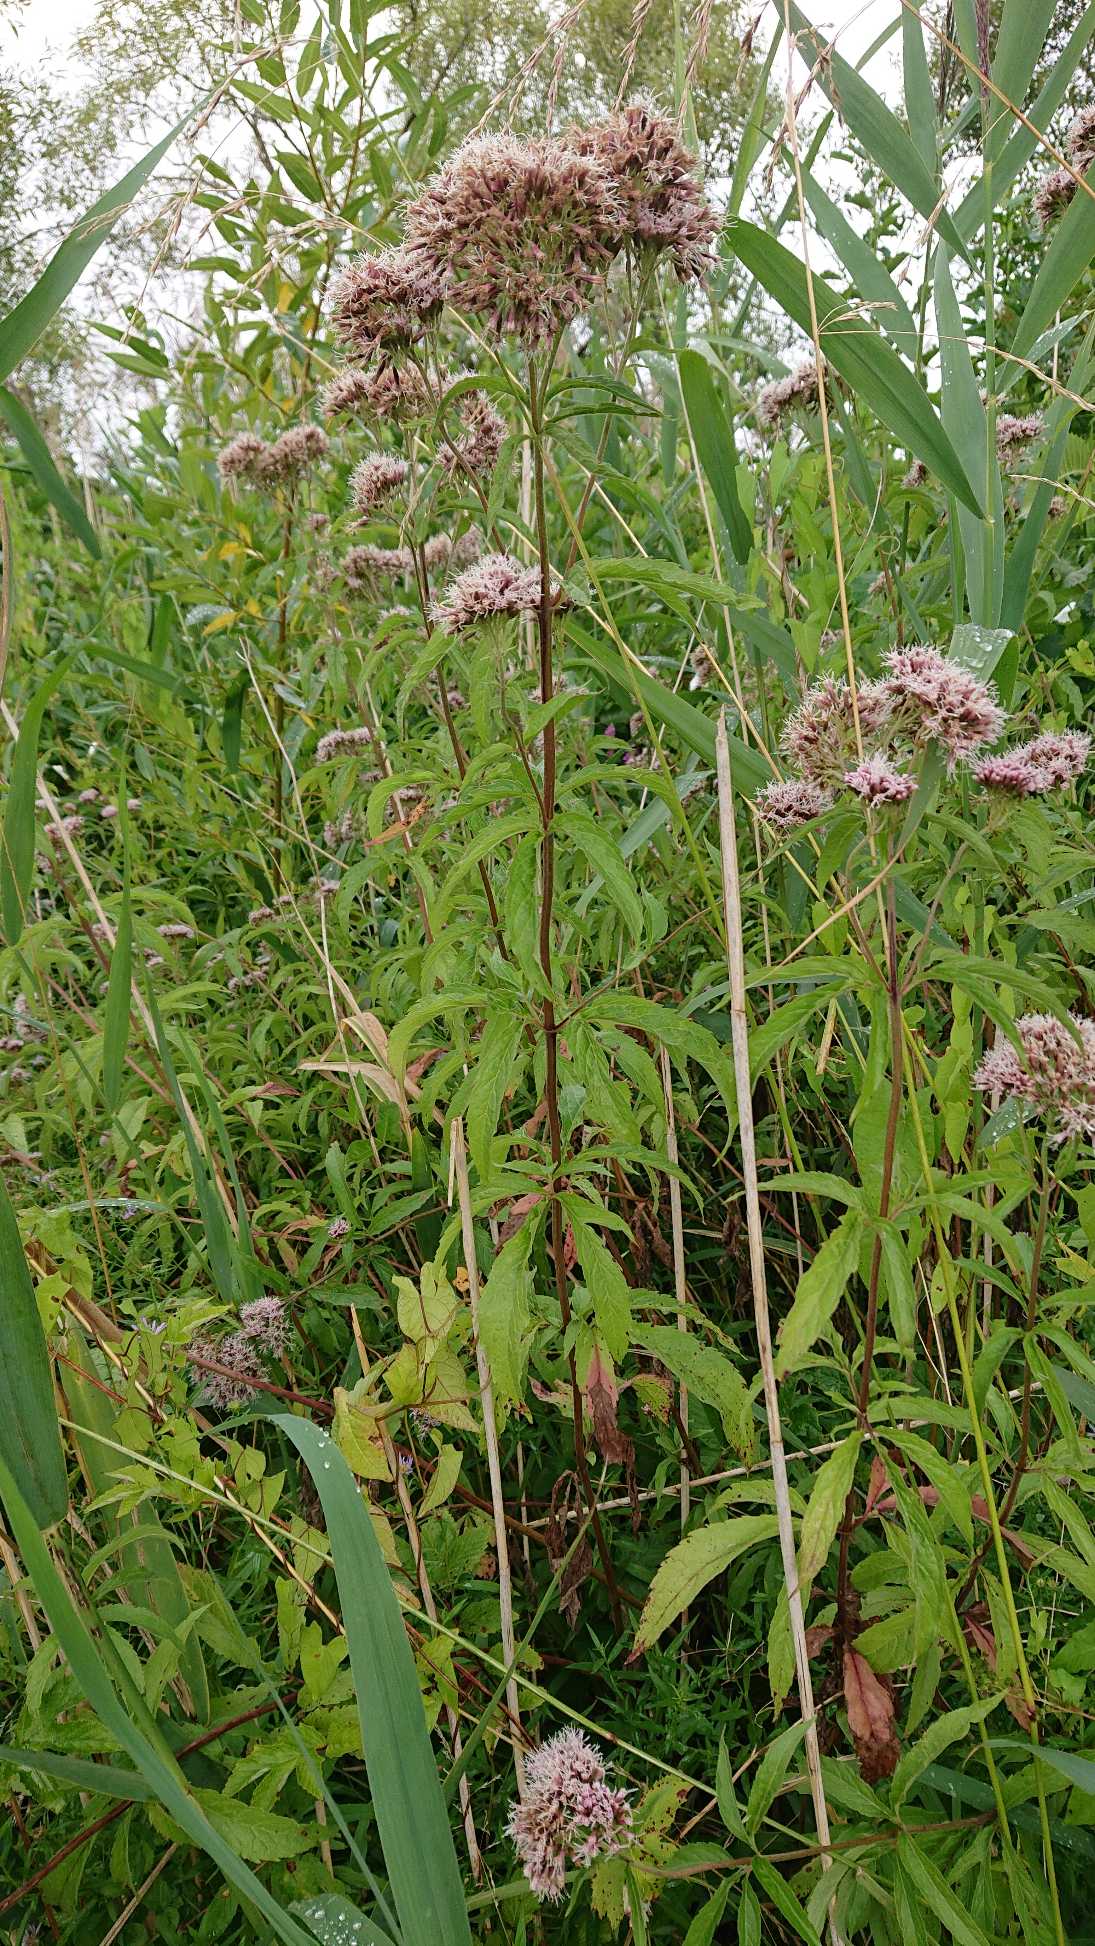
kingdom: Plantae
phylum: Tracheophyta
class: Magnoliopsida
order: Asterales
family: Asteraceae
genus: Eupatorium
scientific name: Eupatorium cannabinum
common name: Hjortetrøst
